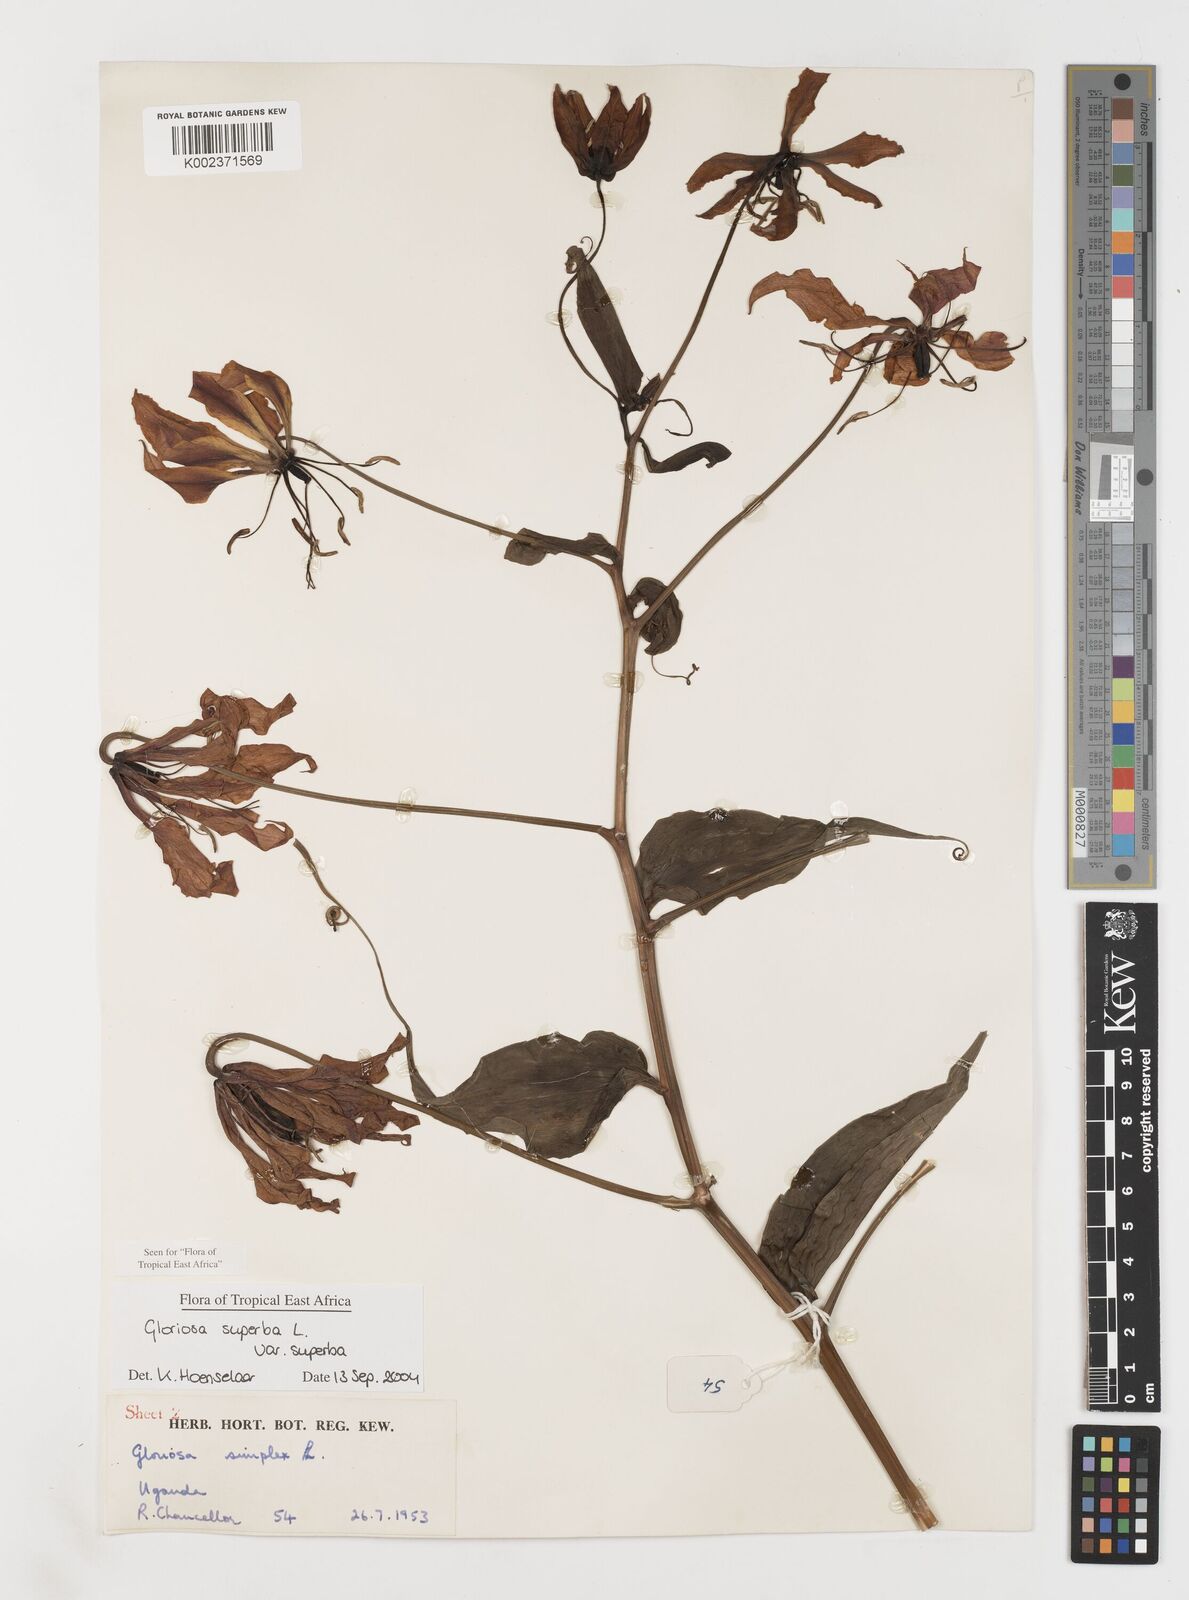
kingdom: Plantae
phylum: Tracheophyta
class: Liliopsida
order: Liliales
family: Colchicaceae
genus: Gloriosa
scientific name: Gloriosa simplex
